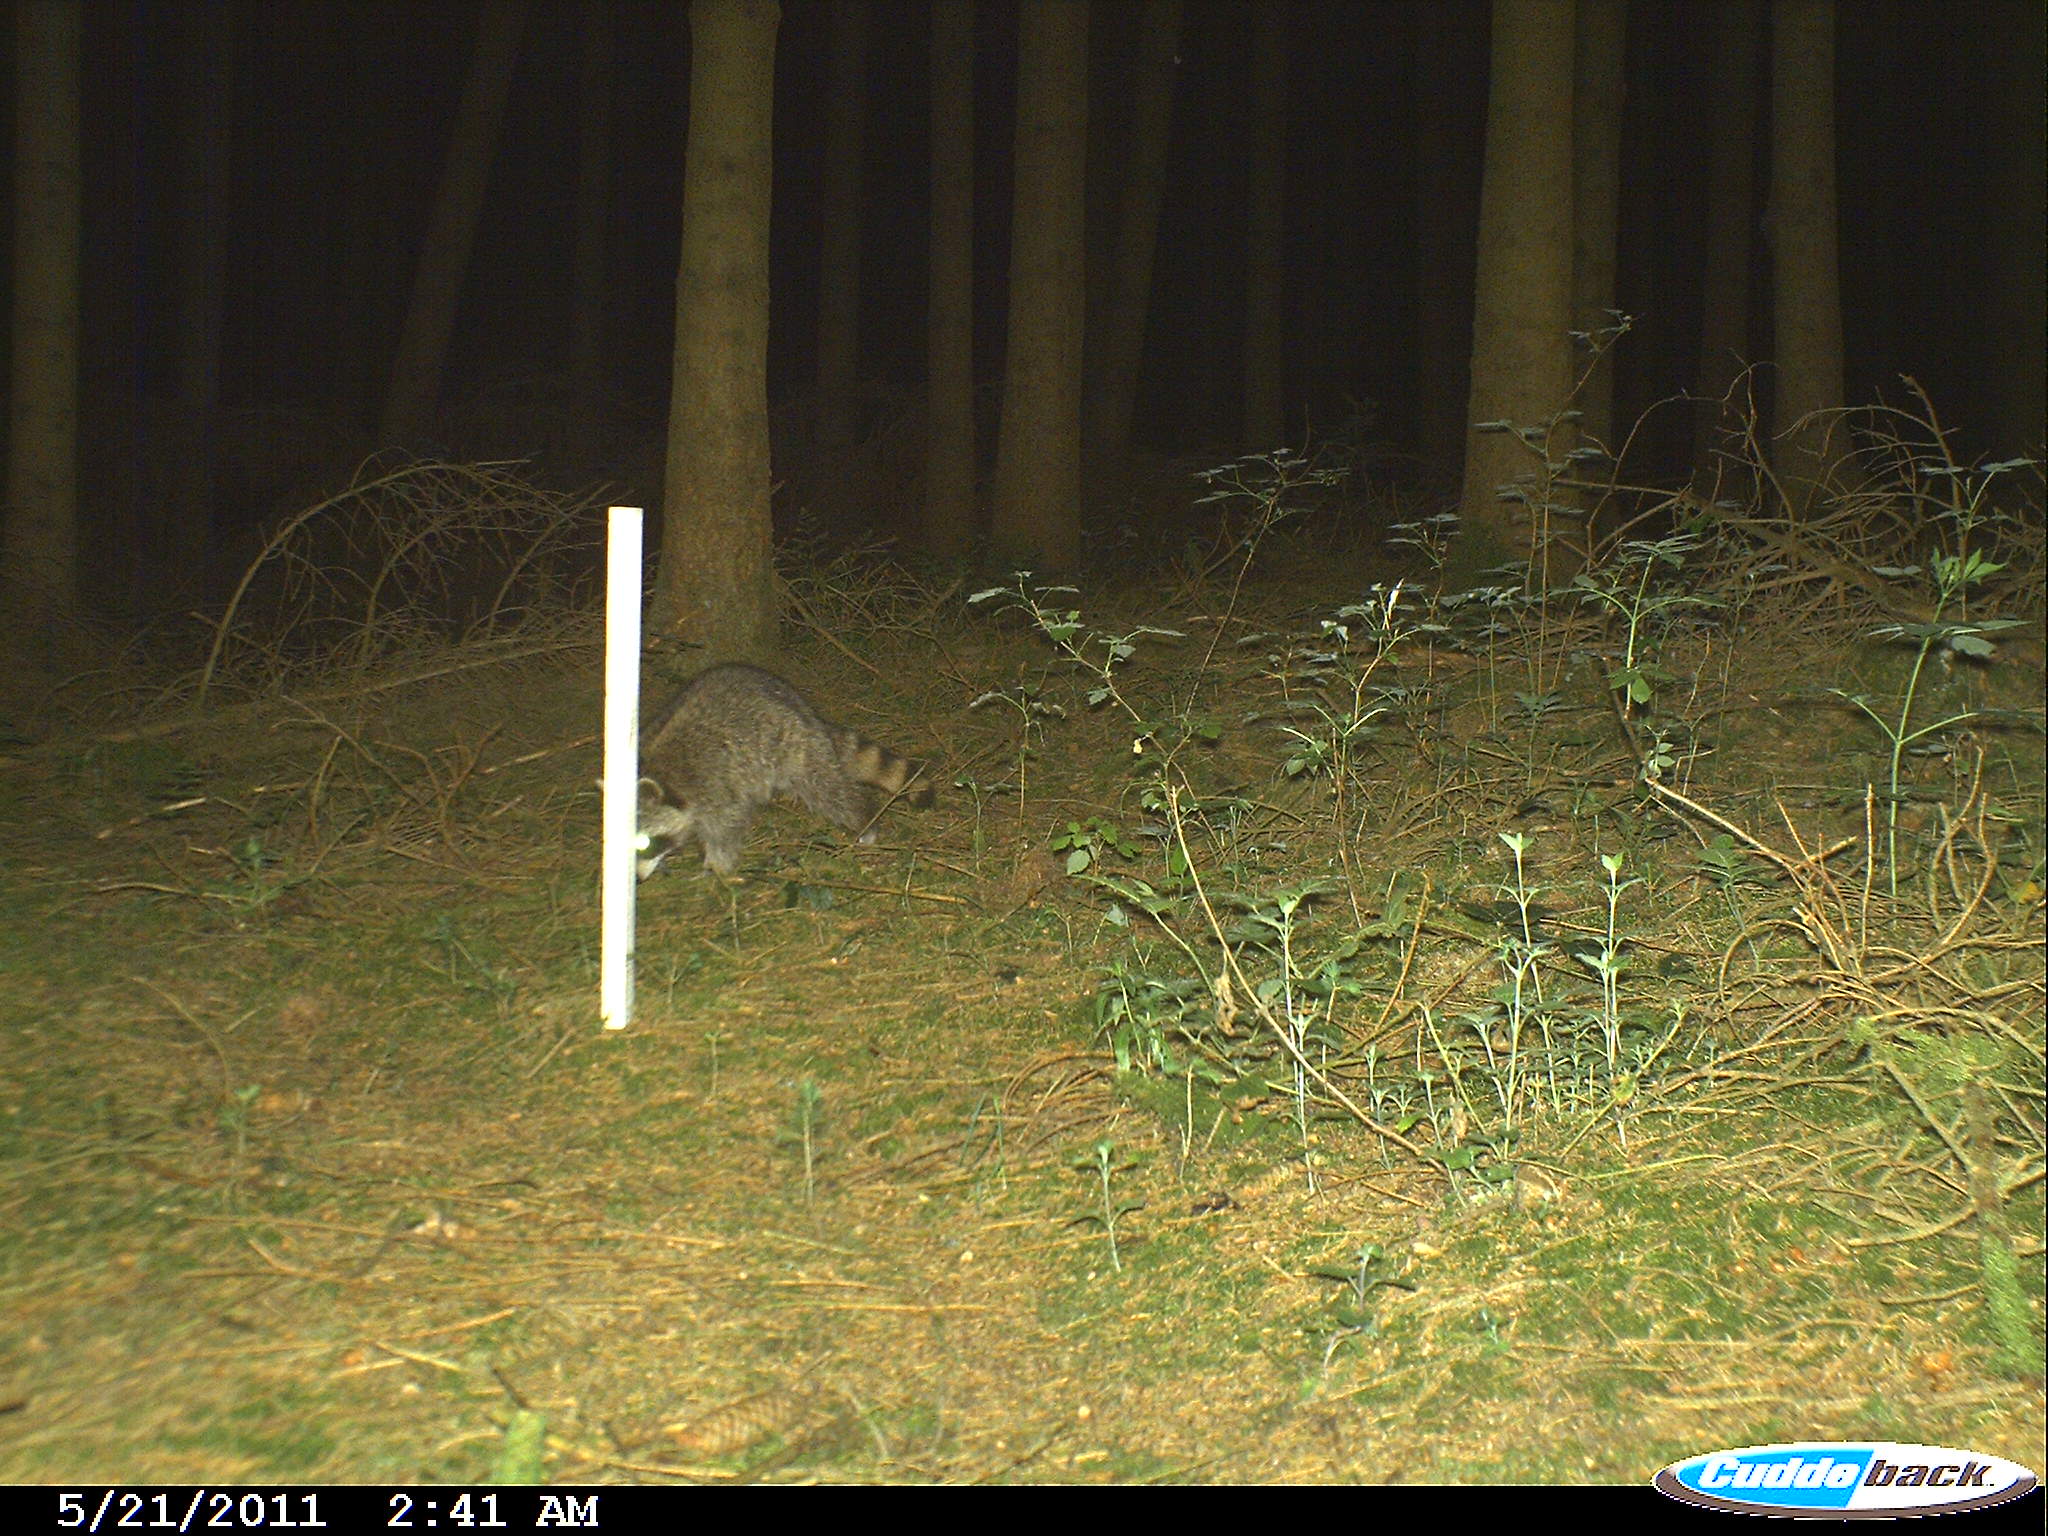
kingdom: Animalia
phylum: Chordata
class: Mammalia
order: Carnivora
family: Procyonidae
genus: Procyon
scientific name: Procyon lotor
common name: Raccoon
